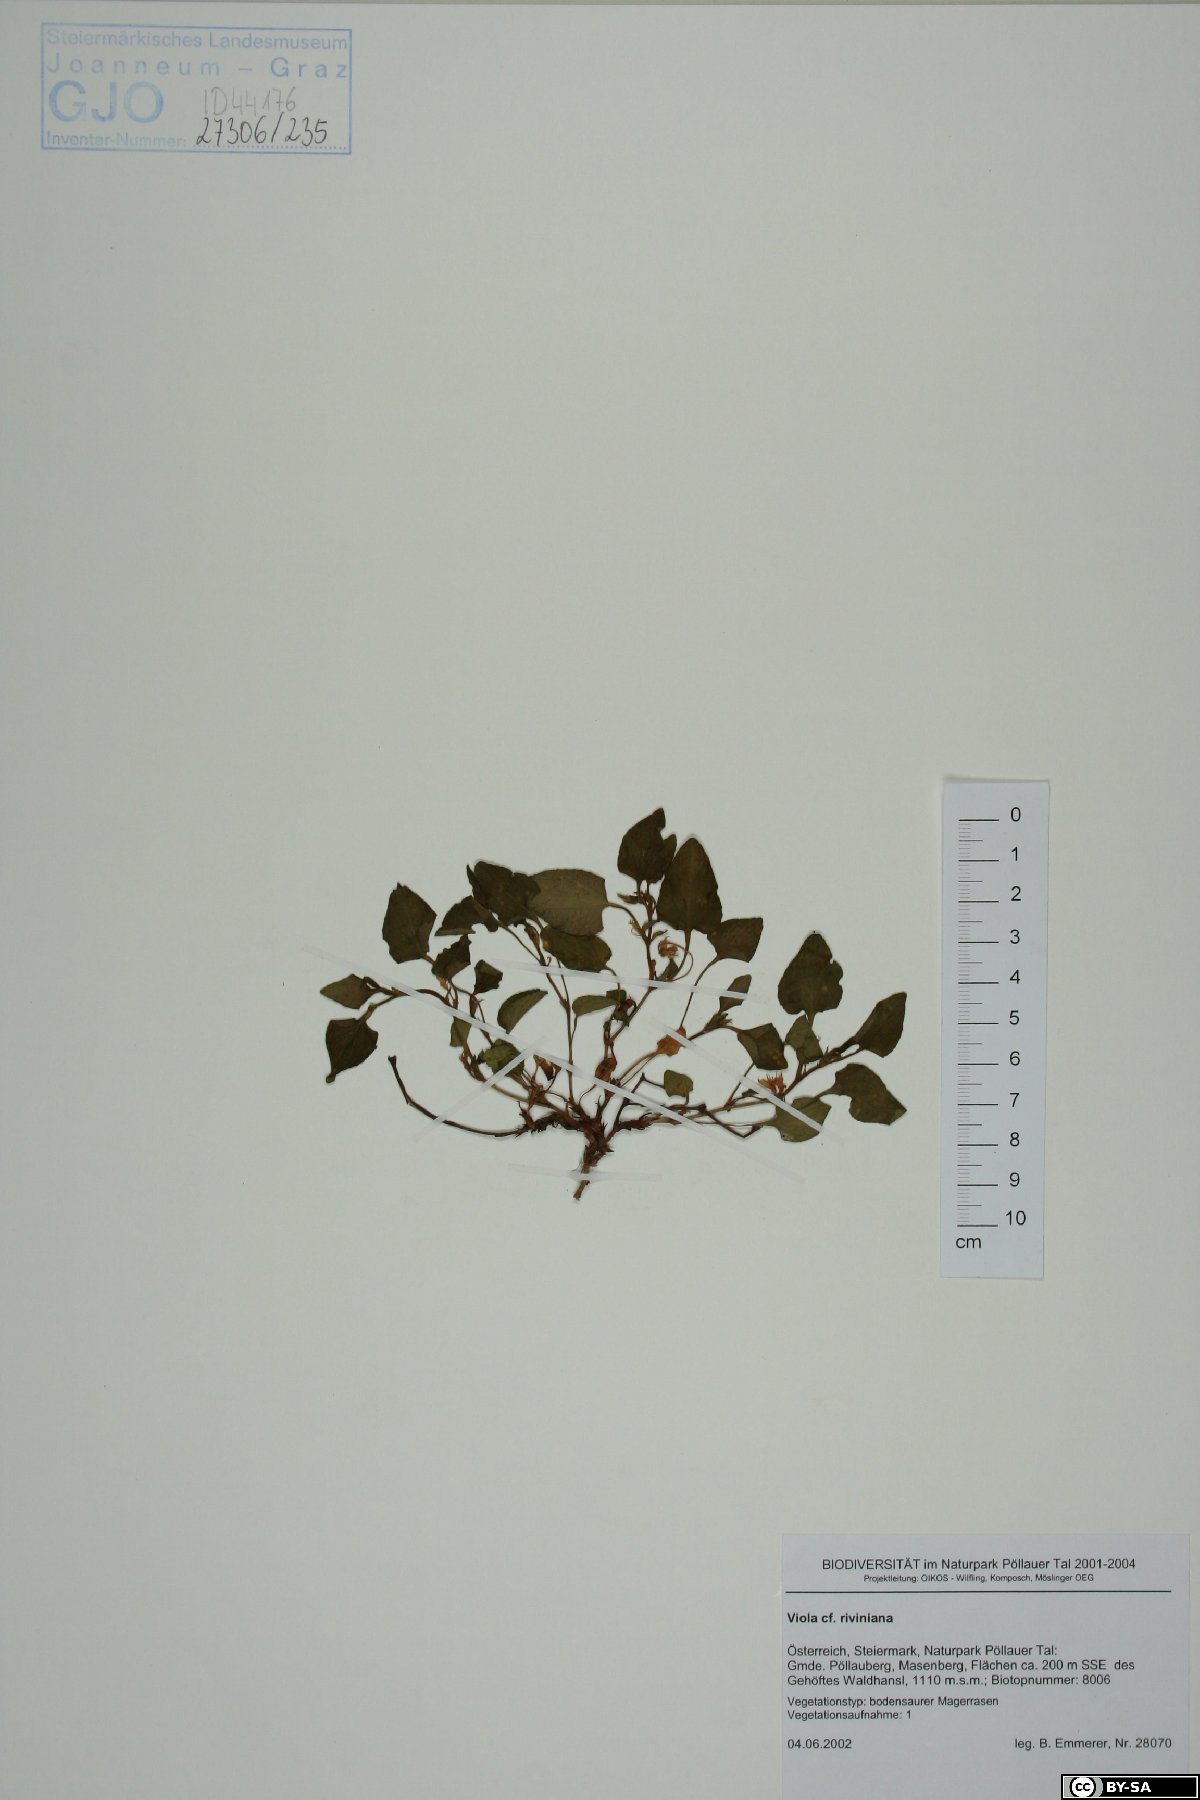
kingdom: Plantae
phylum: Tracheophyta
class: Magnoliopsida
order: Malpighiales
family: Violaceae
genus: Viola
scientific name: Viola riviniana
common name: Common dog-violet
